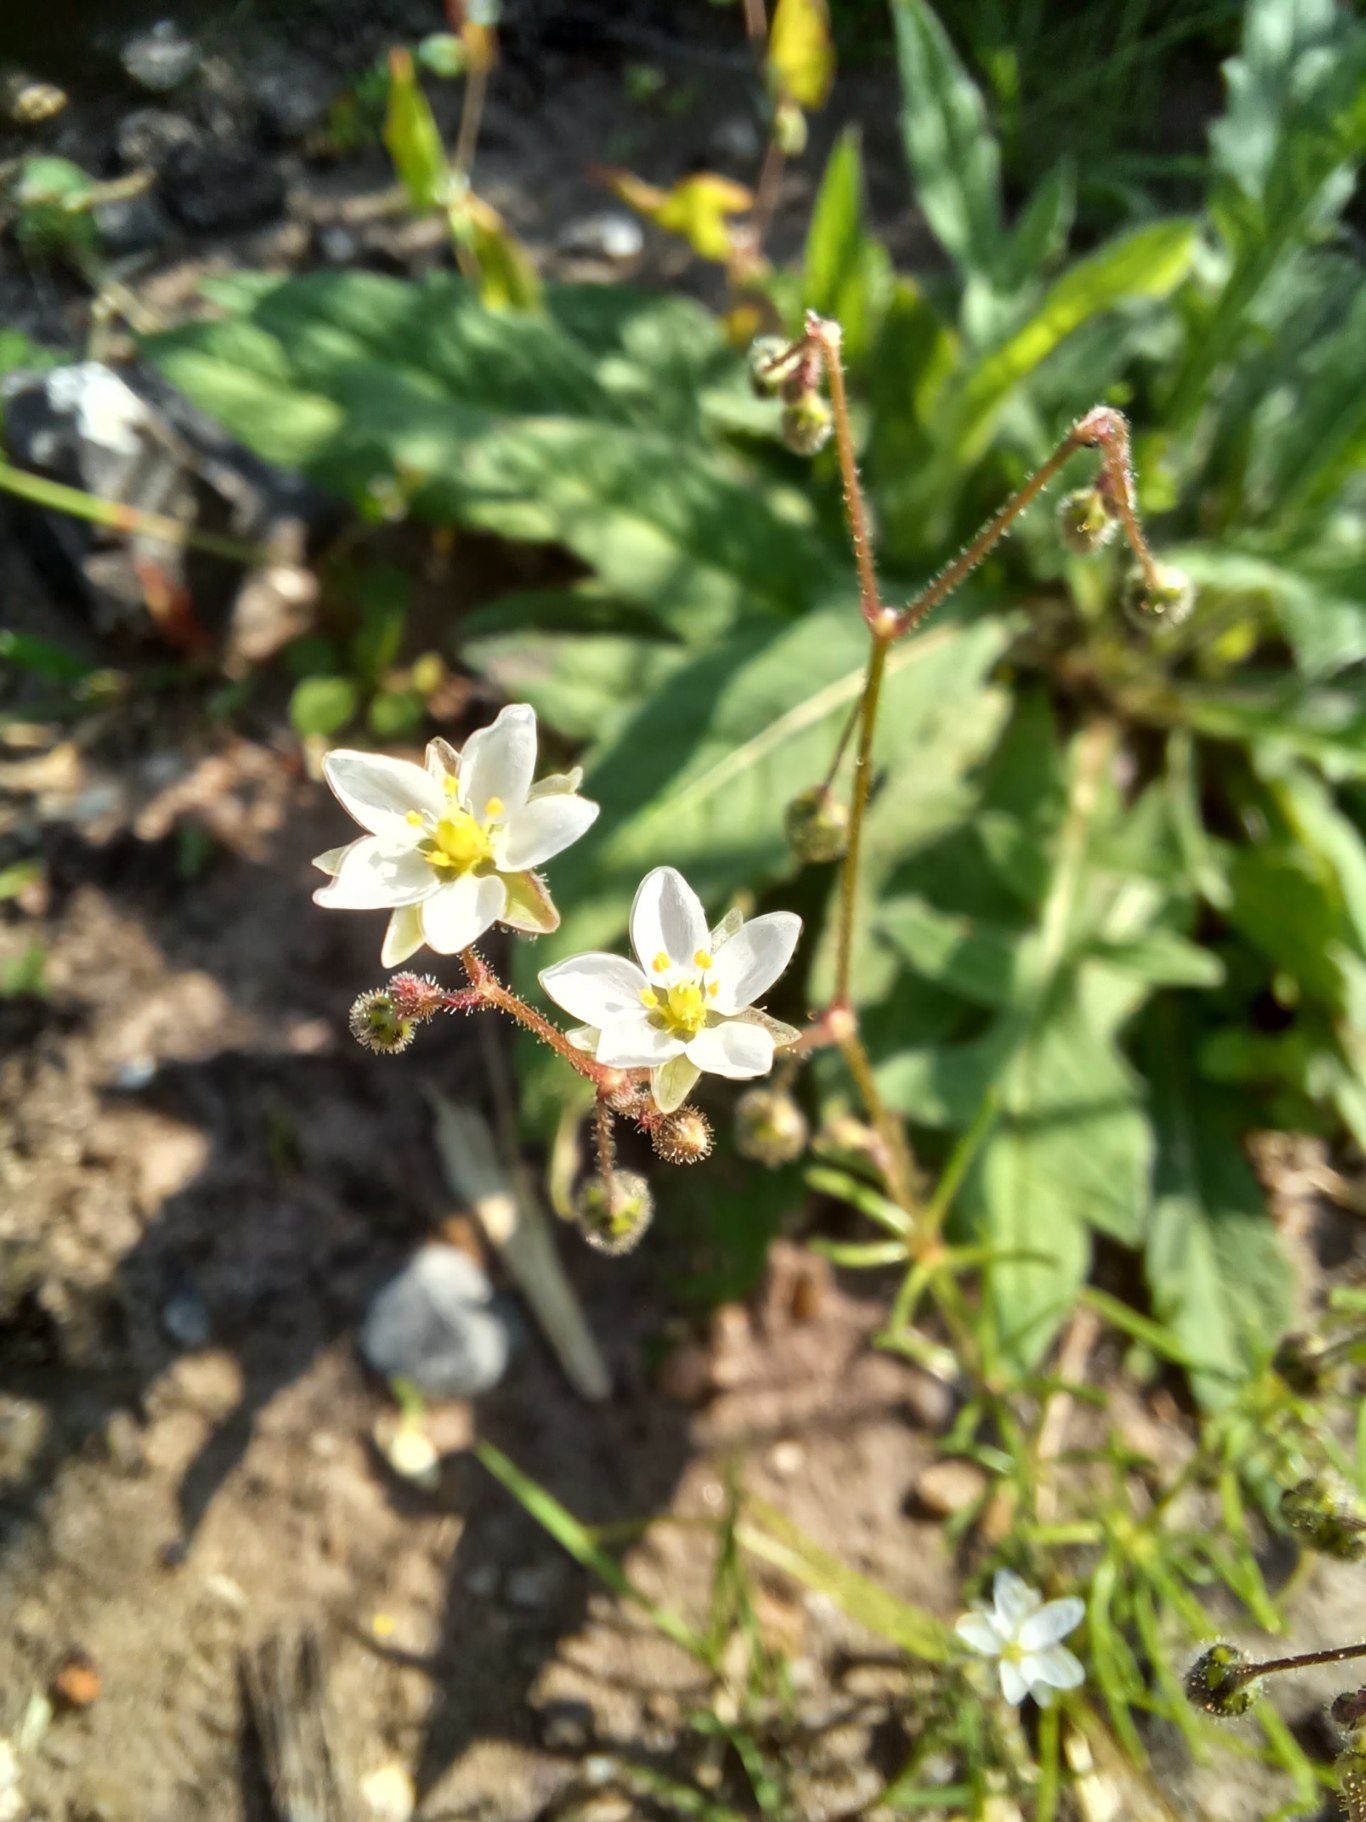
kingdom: Plantae
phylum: Tracheophyta
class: Magnoliopsida
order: Caryophyllales
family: Caryophyllaceae
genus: Spergula
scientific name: Spergula arvensis
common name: Almindelig spergel
